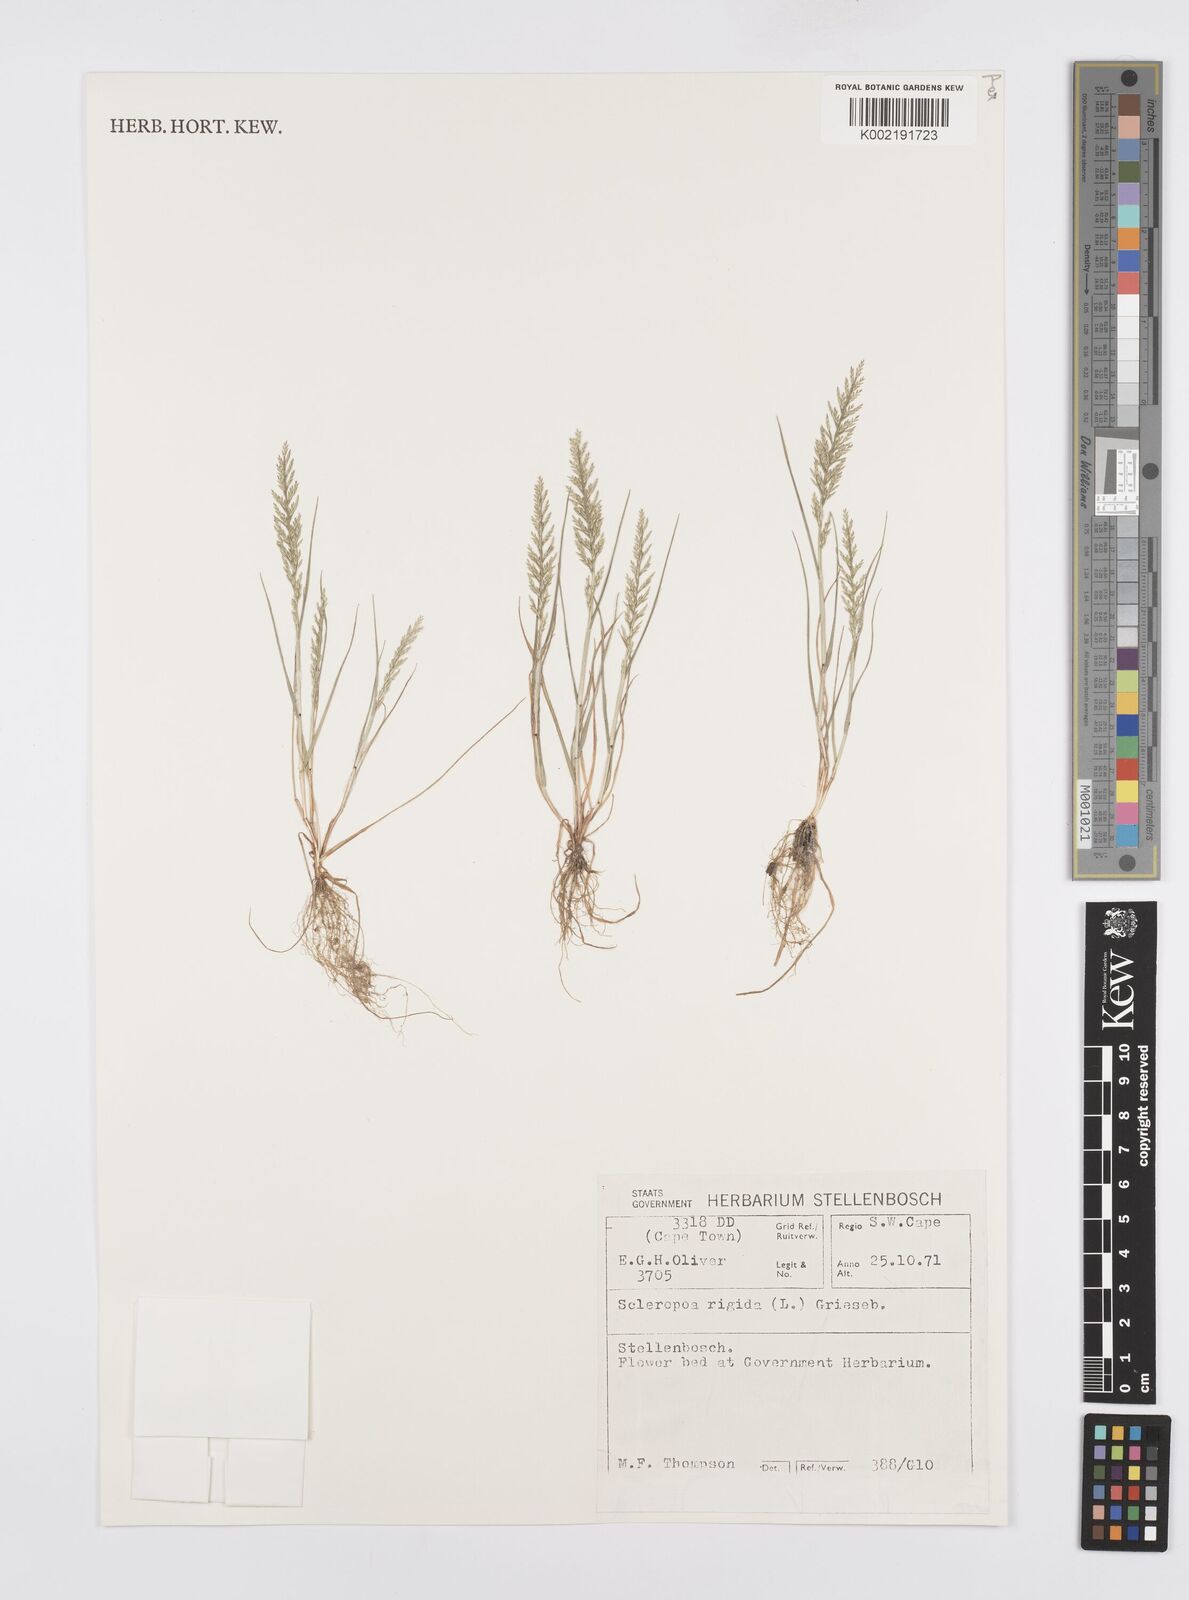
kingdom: Plantae
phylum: Tracheophyta
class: Liliopsida
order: Poales
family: Poaceae
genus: Catapodium
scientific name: Catapodium rigidum
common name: Fern-grass
